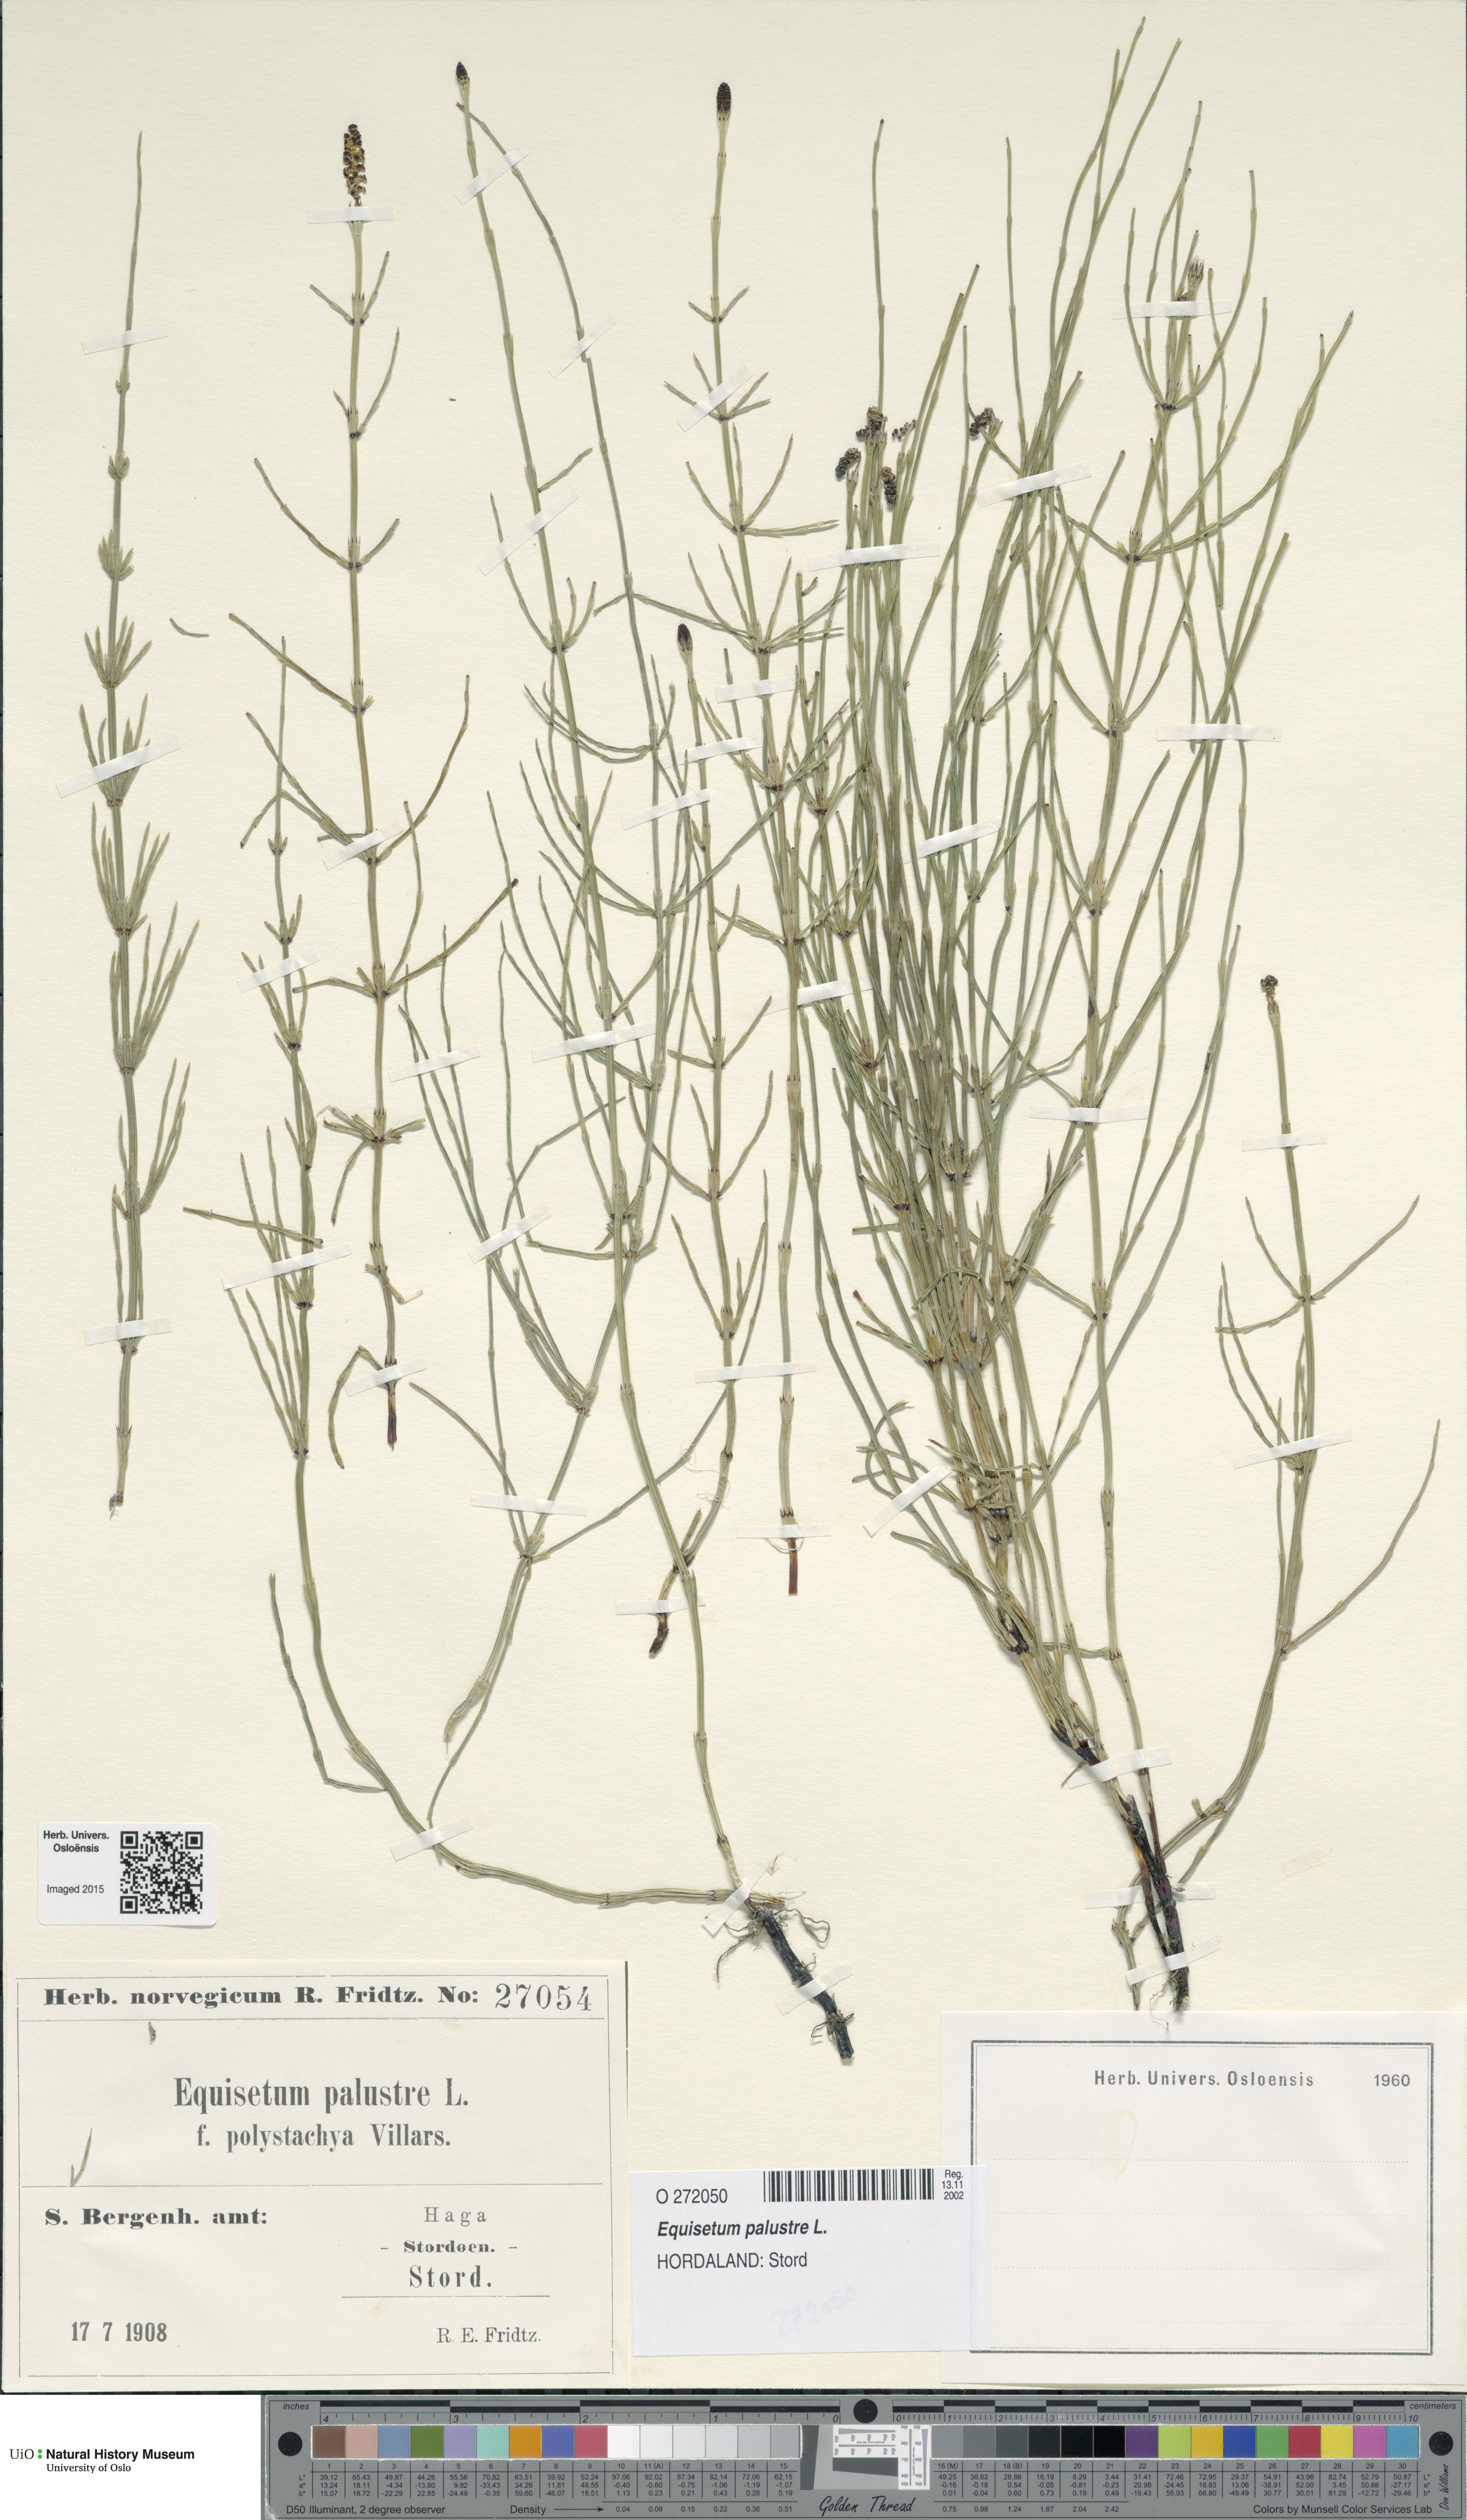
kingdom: Plantae
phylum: Tracheophyta
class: Polypodiopsida
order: Equisetales
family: Equisetaceae
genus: Equisetum
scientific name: Equisetum palustre
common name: Marsh horsetail
